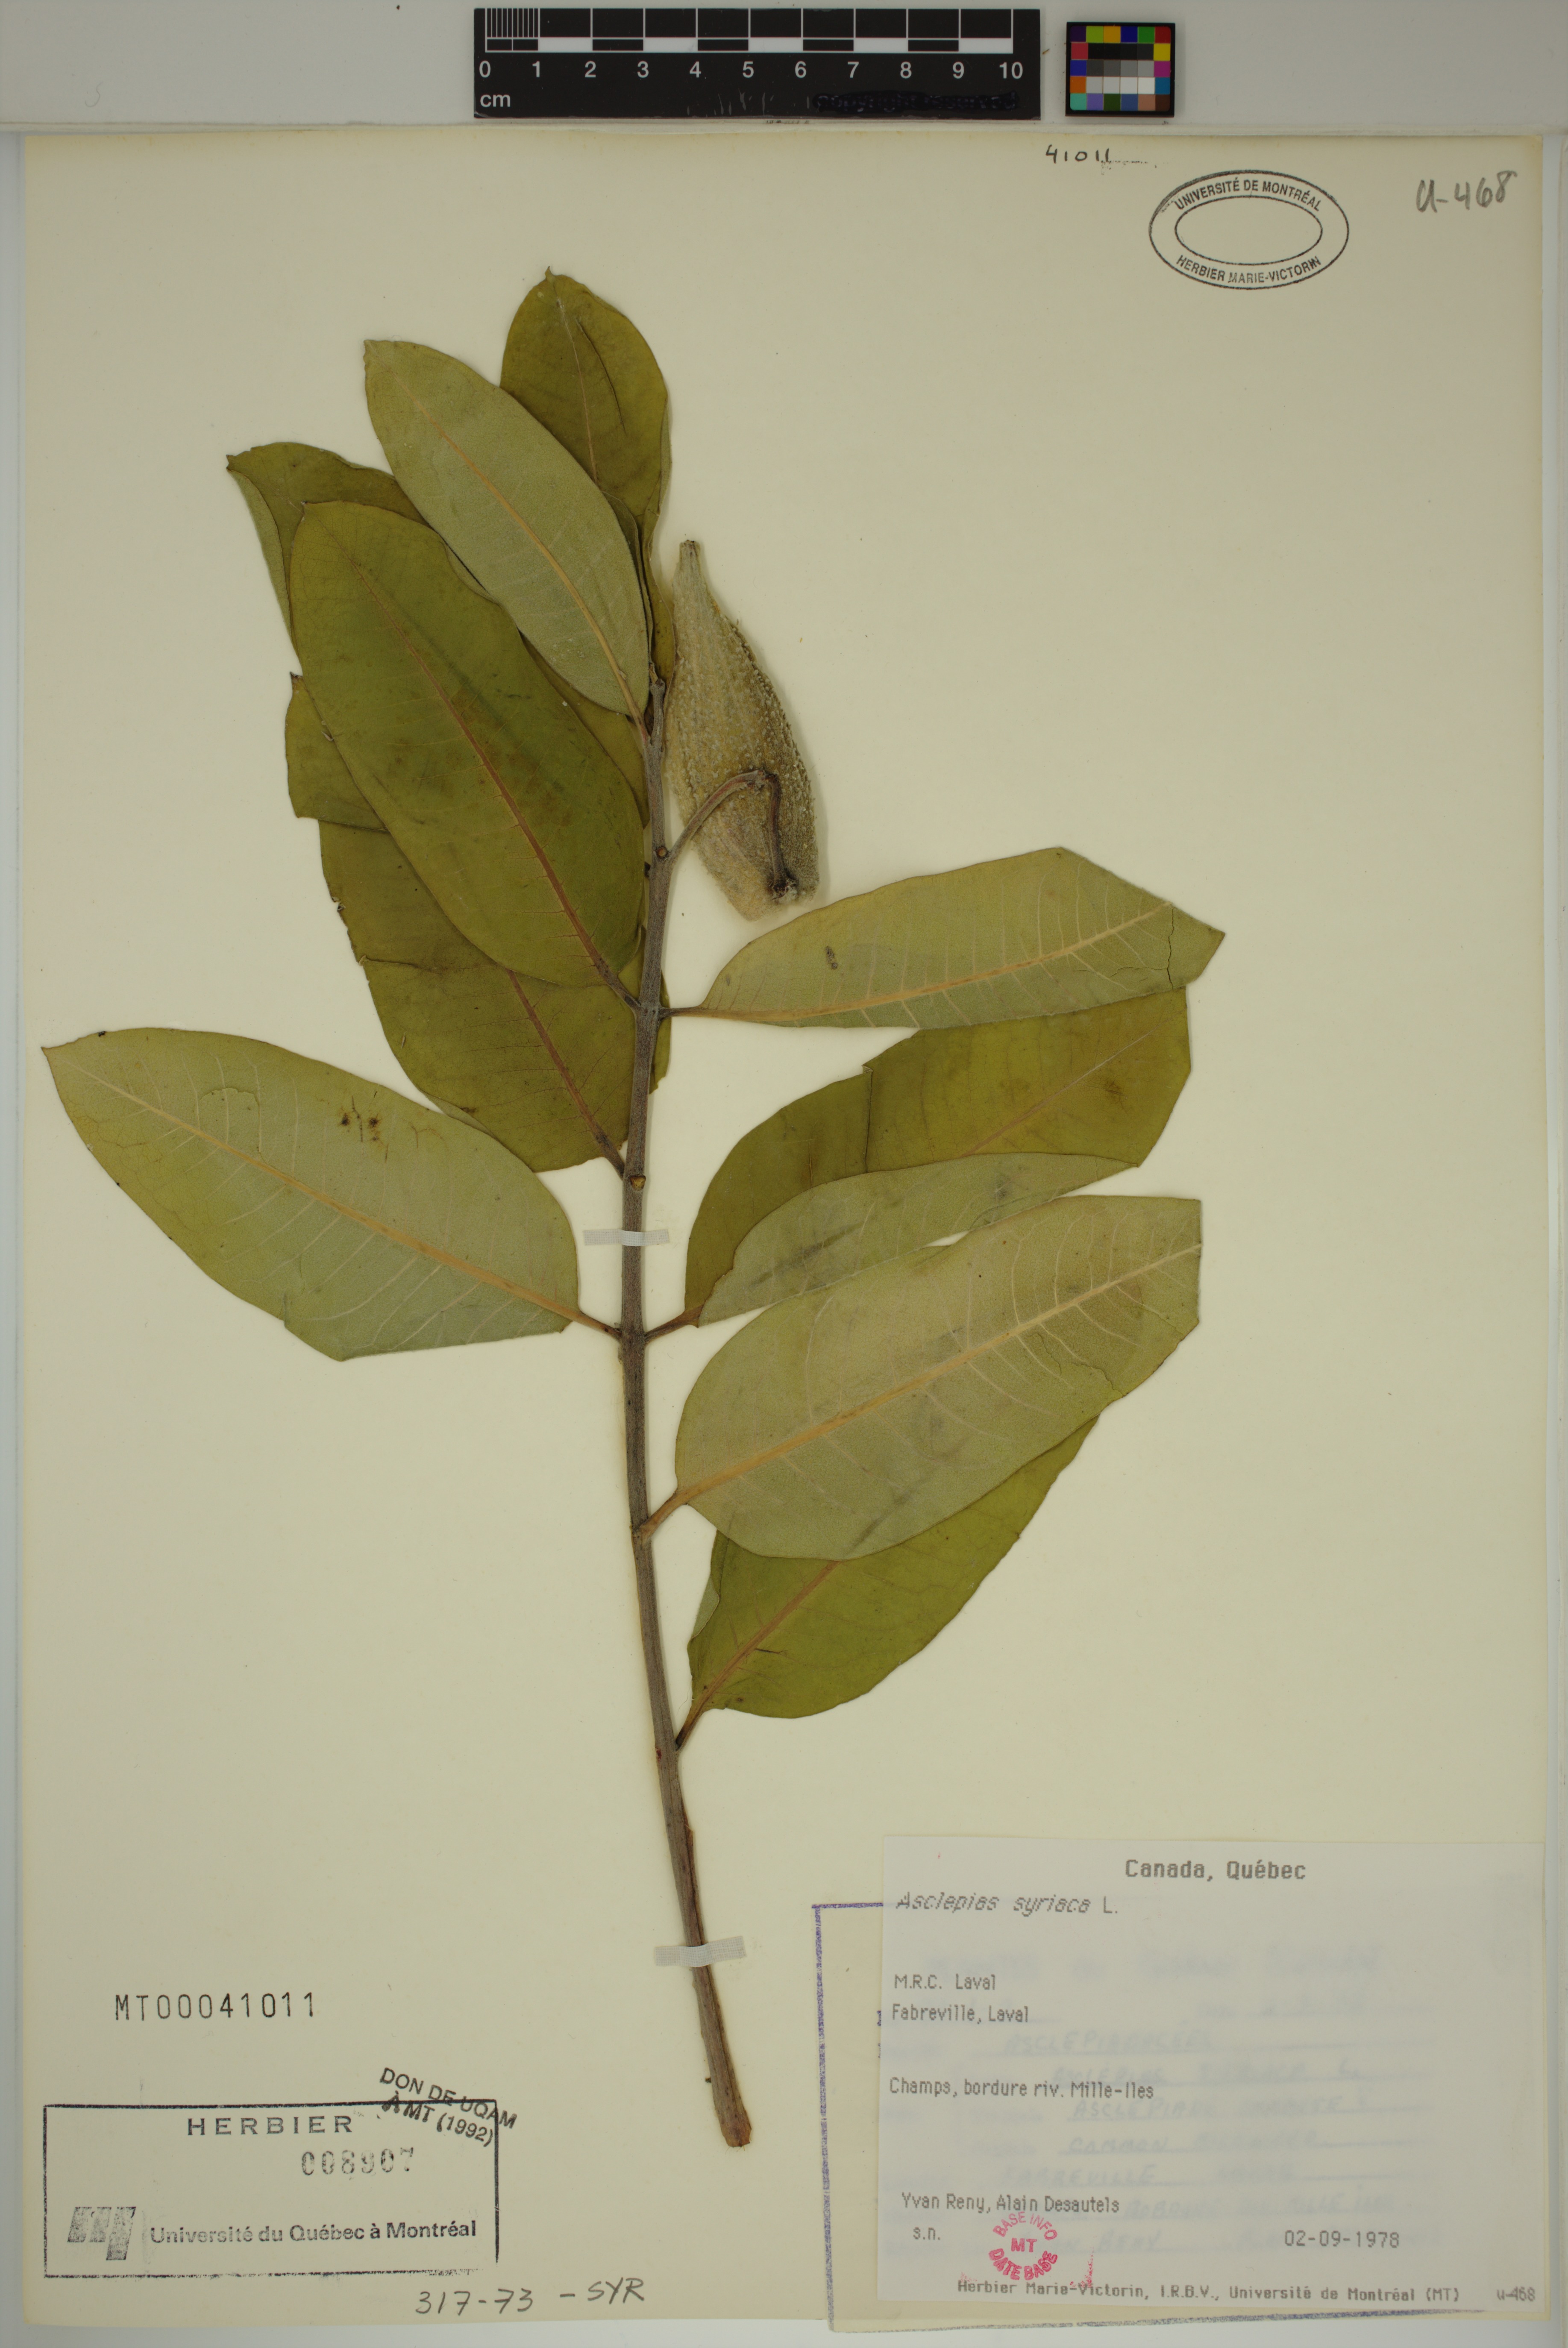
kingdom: Plantae
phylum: Tracheophyta
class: Magnoliopsida
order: Gentianales
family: Apocynaceae
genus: Asclepias
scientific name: Asclepias syriaca
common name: Common milkweed
